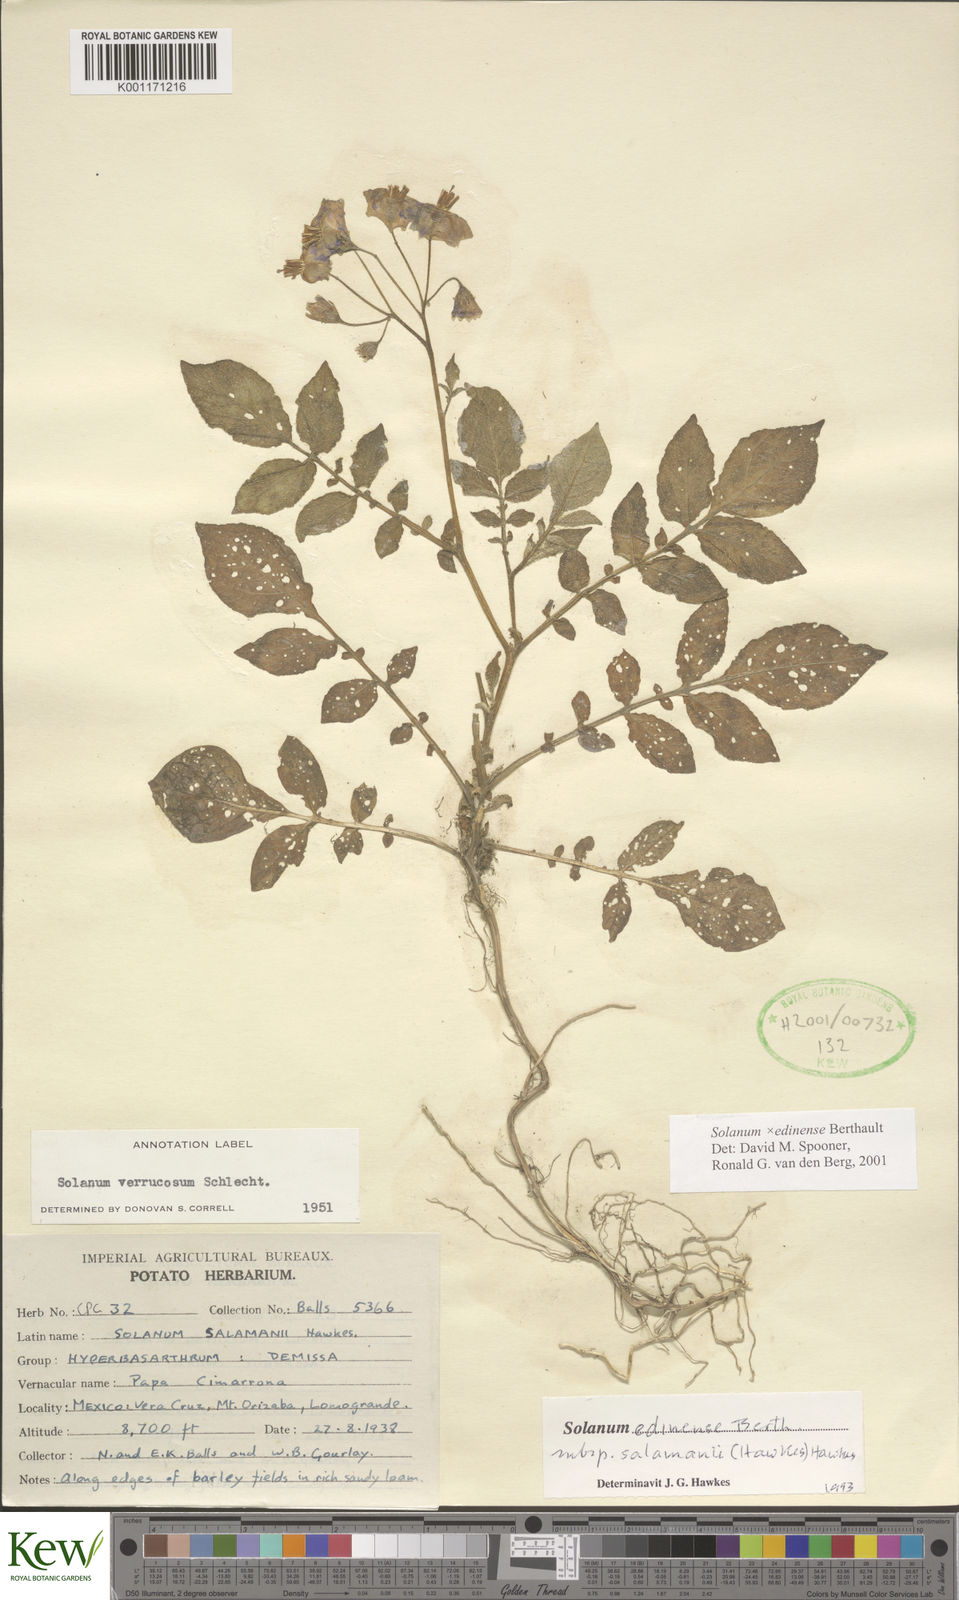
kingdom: Plantae
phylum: Tracheophyta
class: Magnoliopsida
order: Solanales
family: Solanaceae
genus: Solanum
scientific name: Solanum edinense
